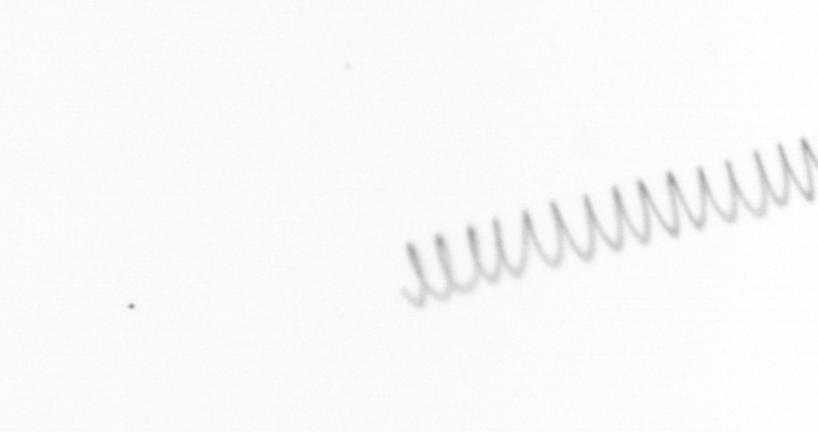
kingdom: Chromista
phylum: Ochrophyta
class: Bacillariophyceae
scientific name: Bacillariophyceae
